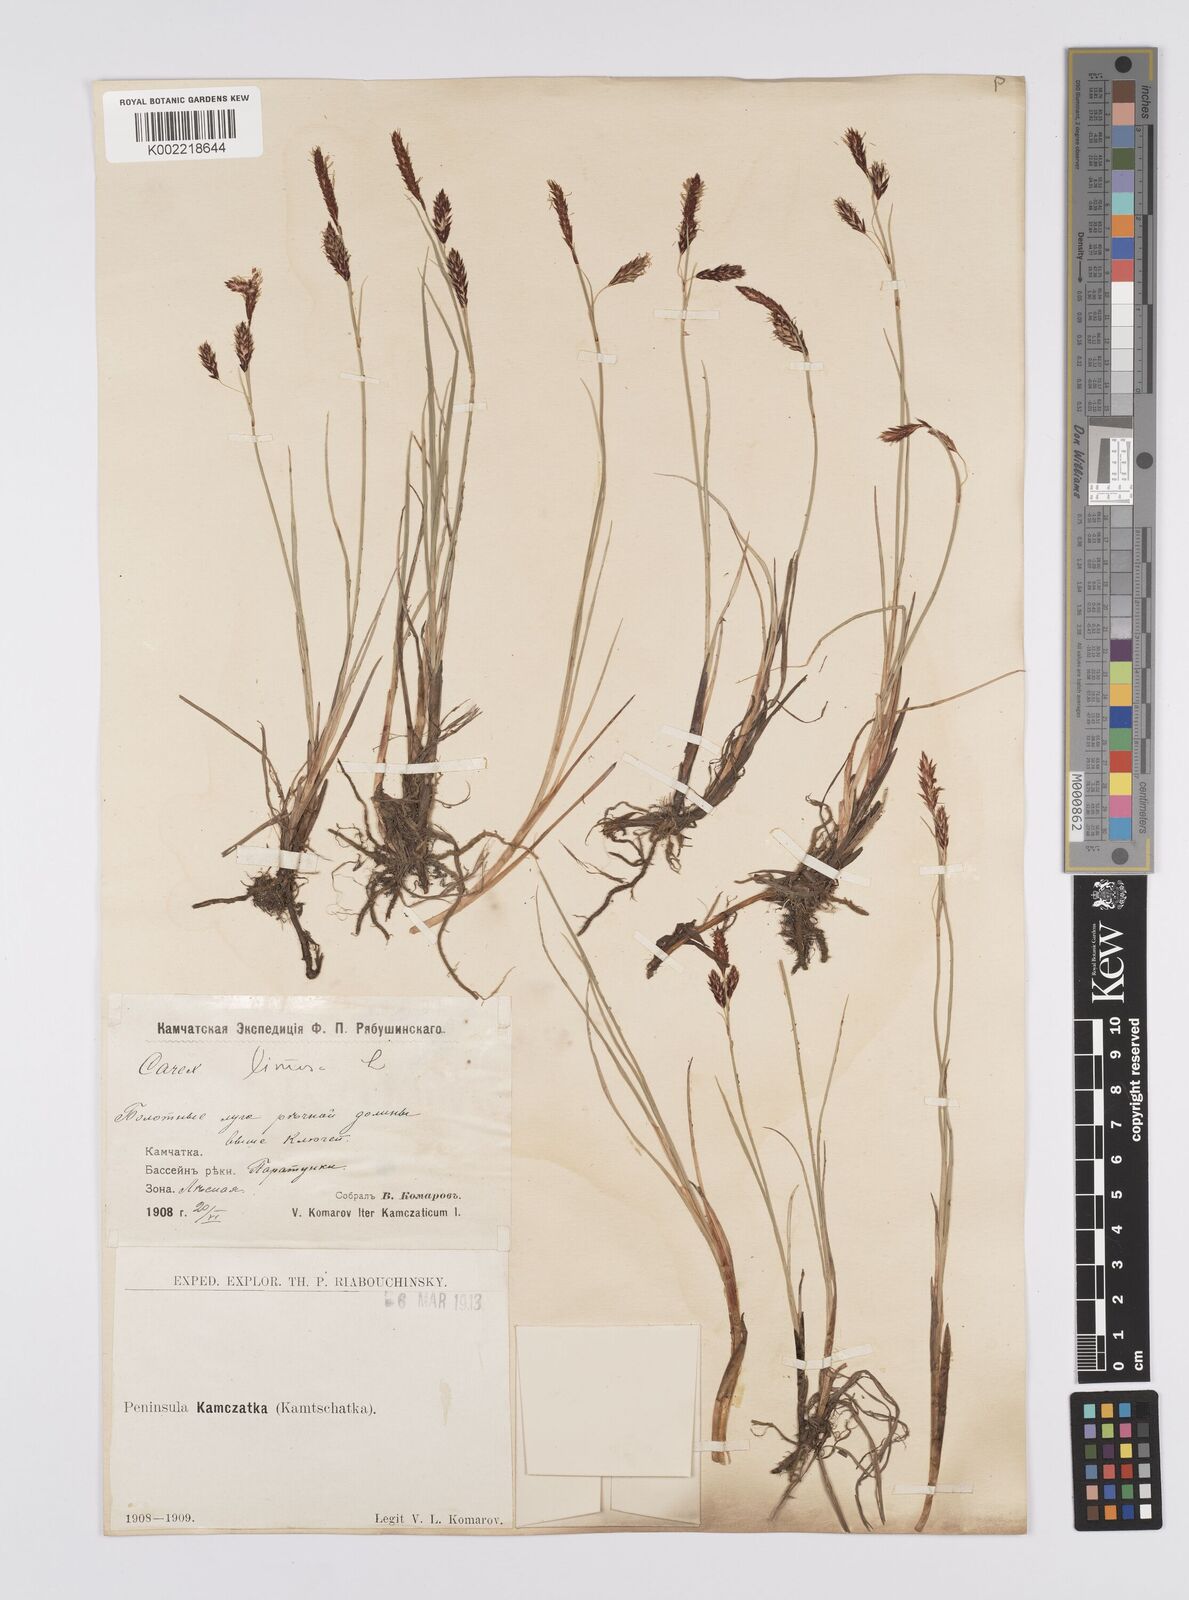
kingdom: Plantae
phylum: Tracheophyta
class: Liliopsida
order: Poales
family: Cyperaceae
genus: Carex
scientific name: Carex limosa
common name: Bog sedge
